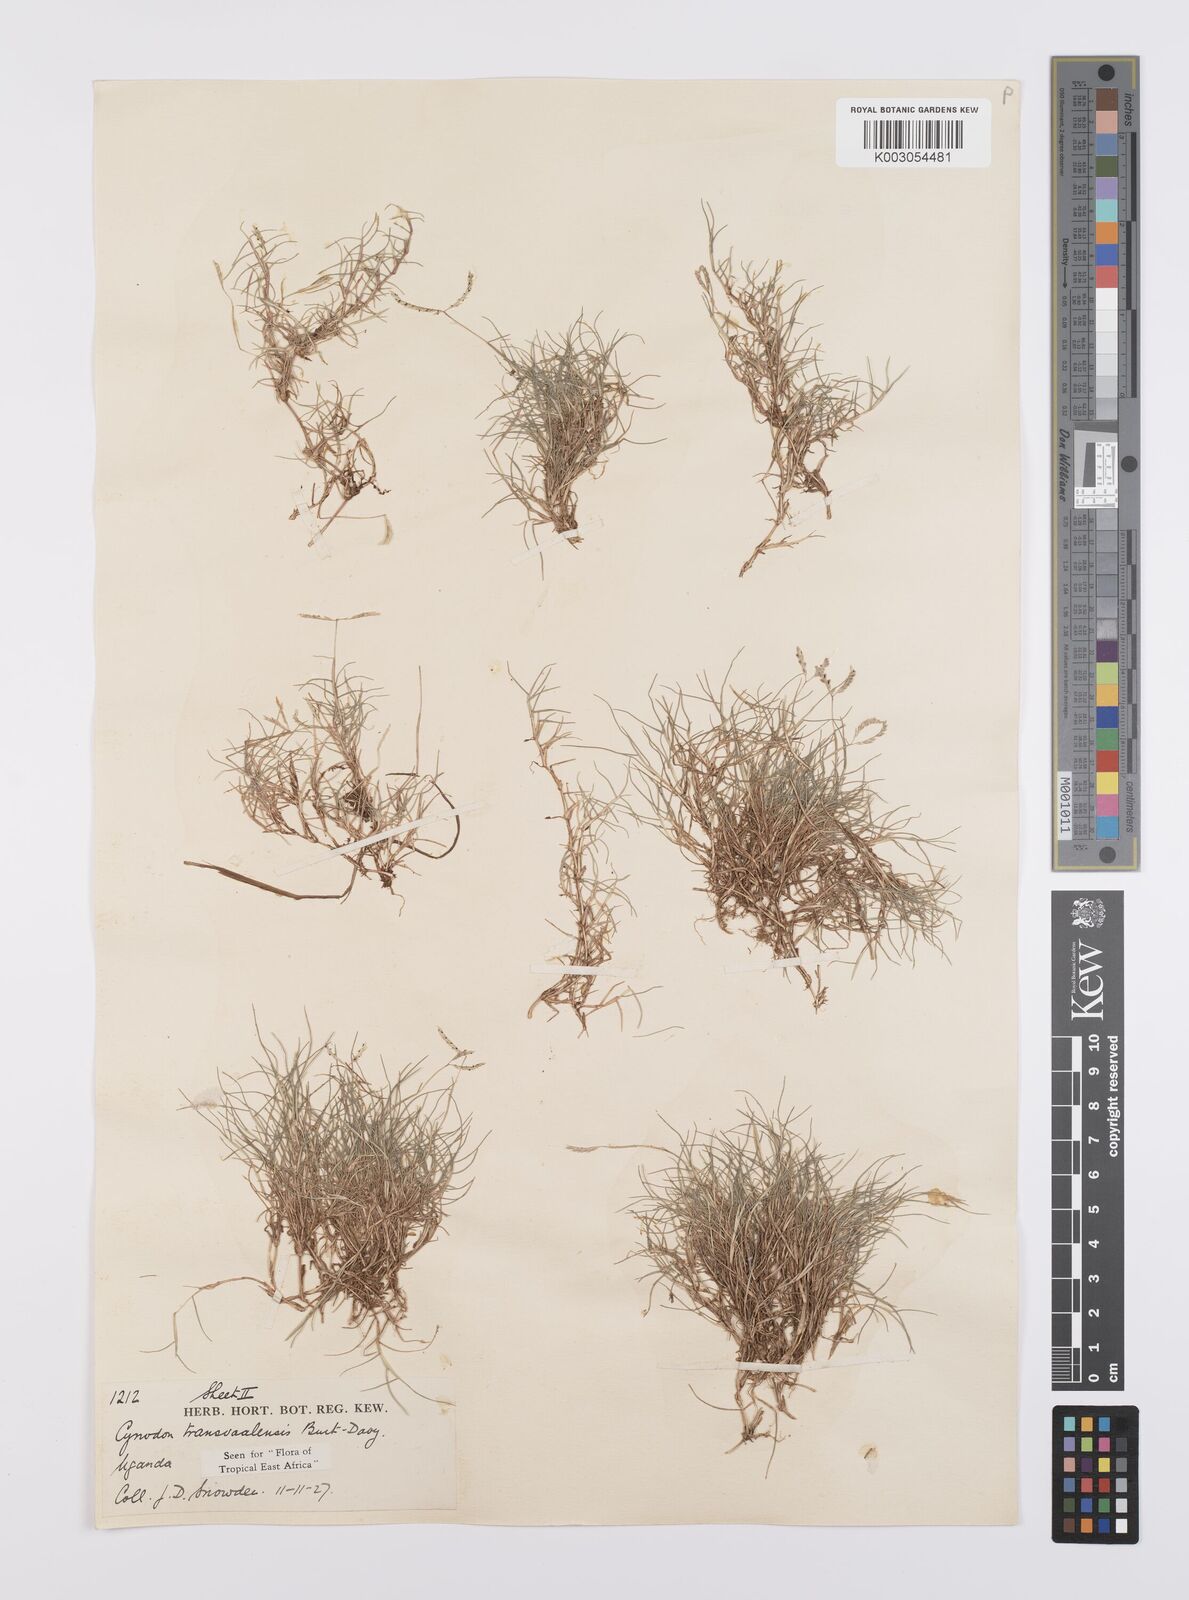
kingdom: Plantae
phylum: Tracheophyta
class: Liliopsida
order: Poales
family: Poaceae
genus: Cynodon
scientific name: Cynodon transvaalensis
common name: African bermuda grass
